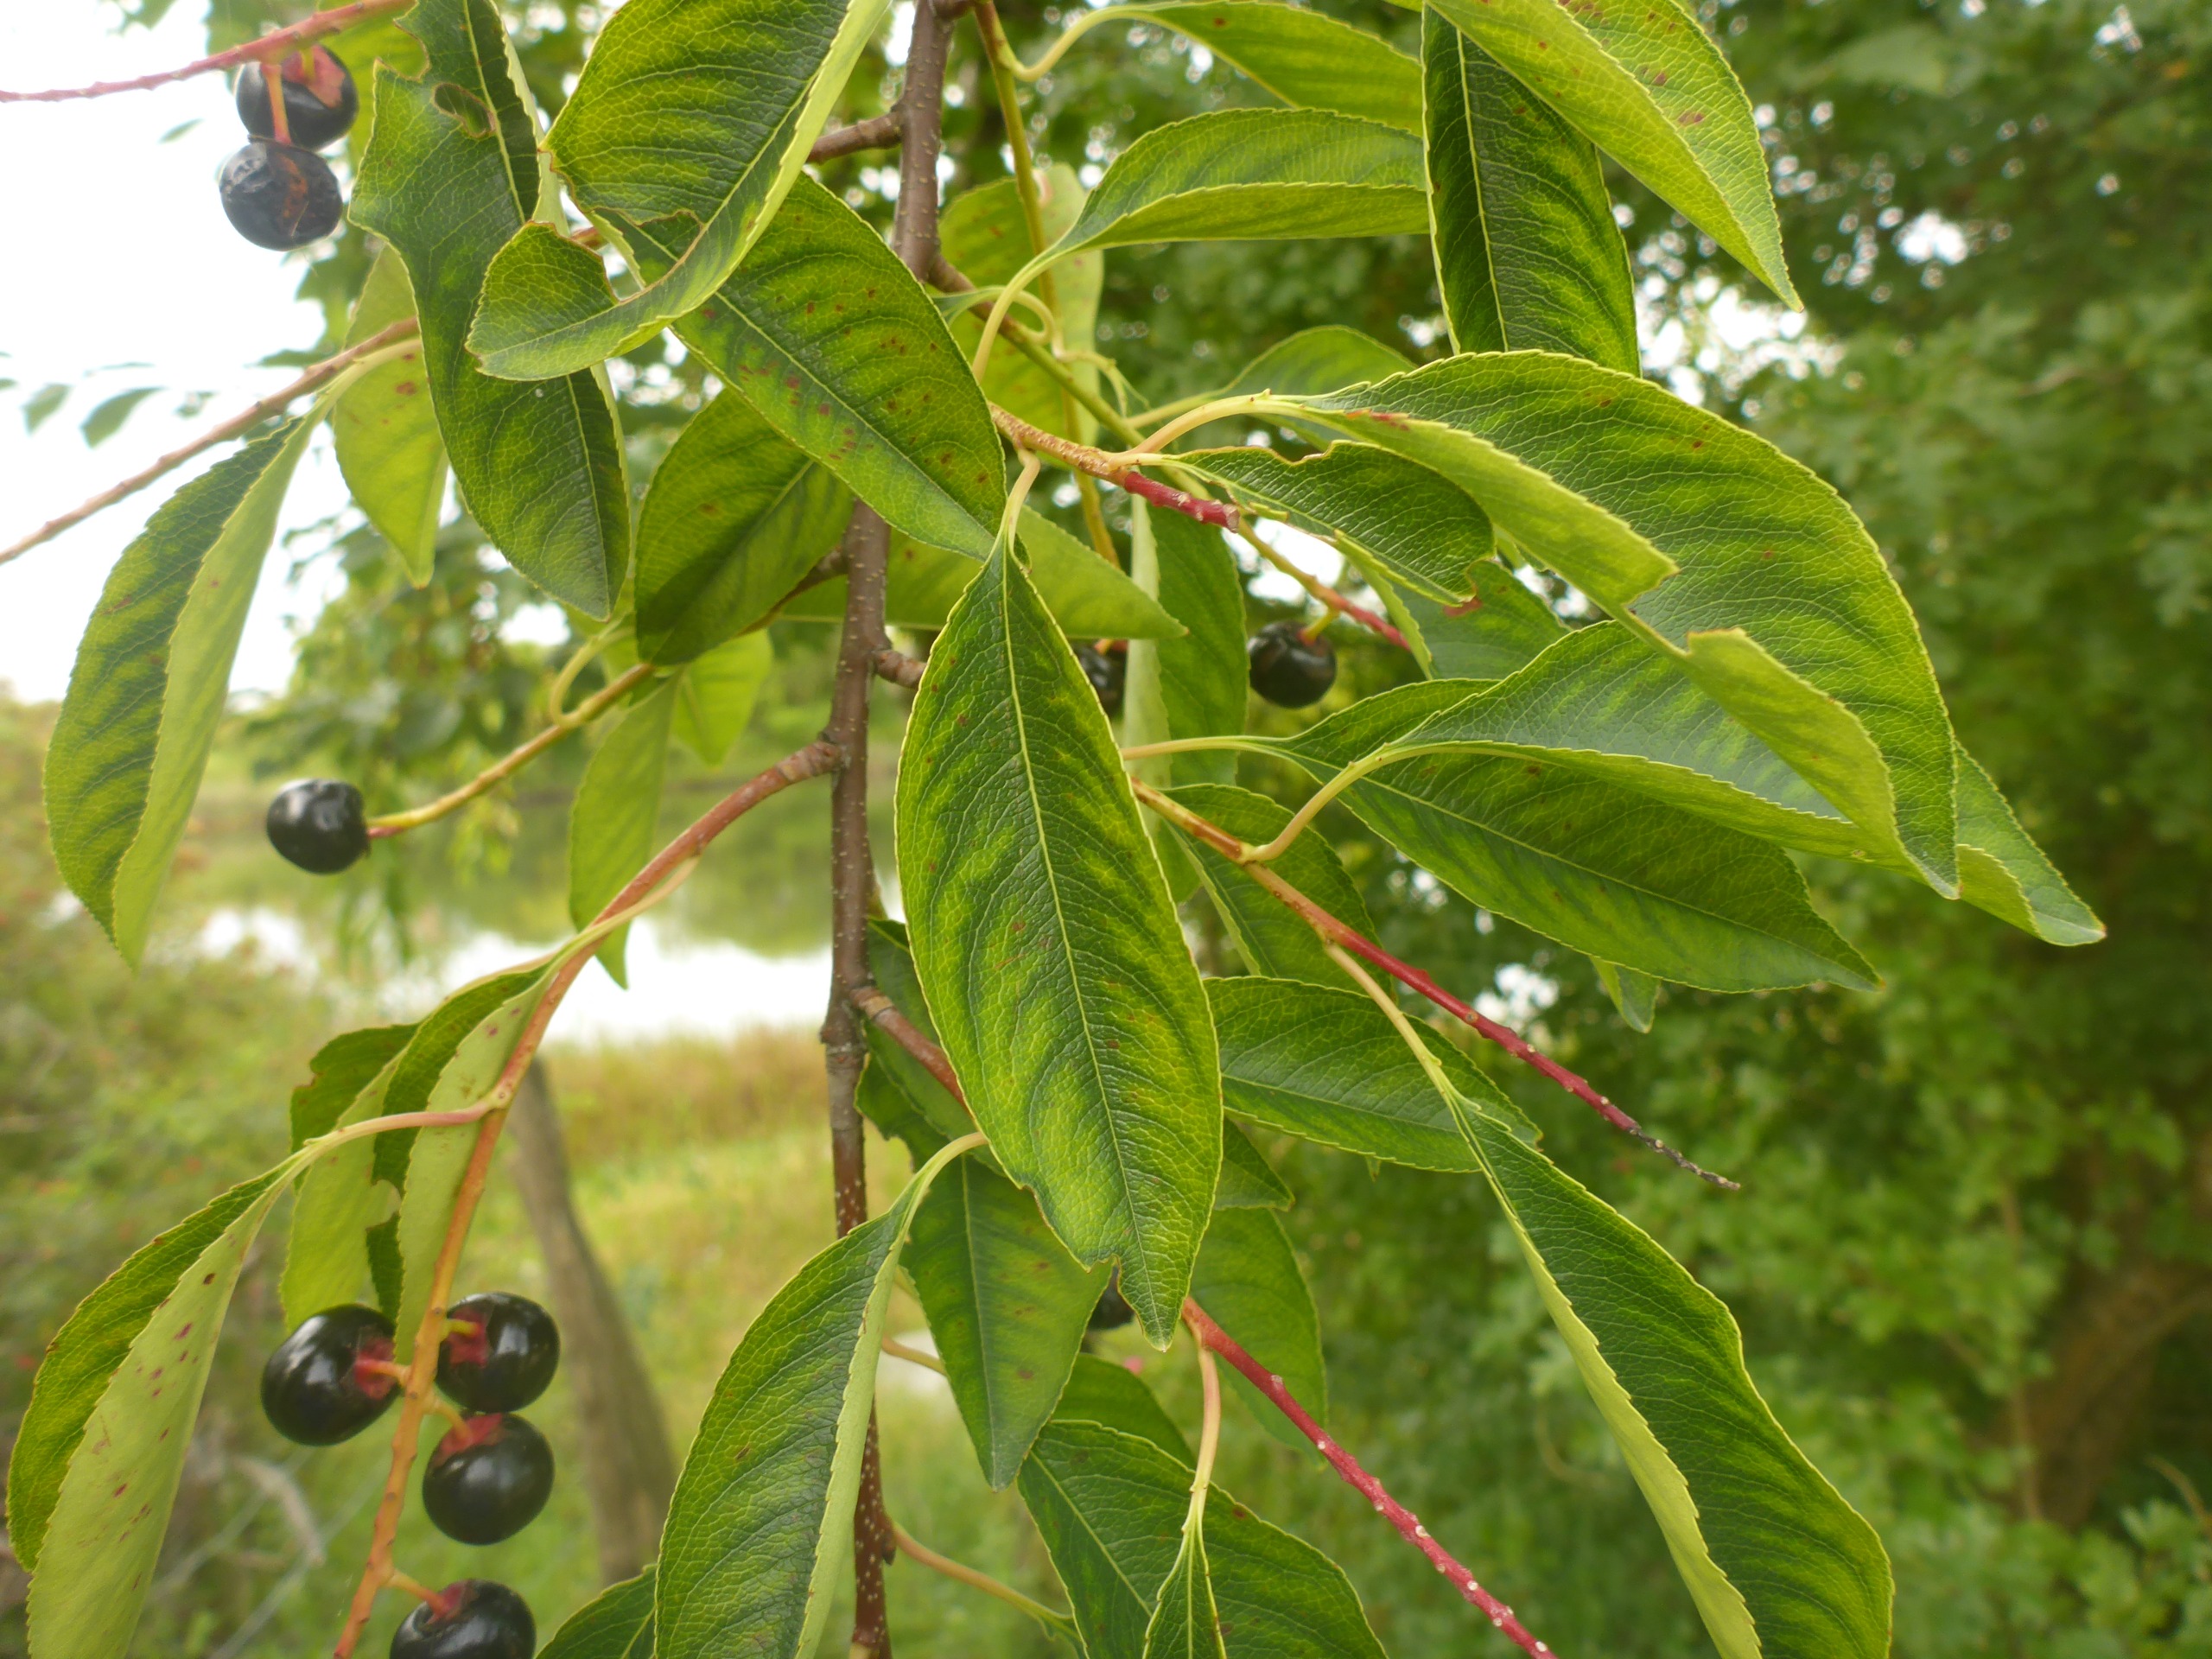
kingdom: Plantae
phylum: Tracheophyta
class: Magnoliopsida
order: Rosales
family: Rosaceae
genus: Prunus
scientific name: Prunus serotina
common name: Glansbladet hæg
